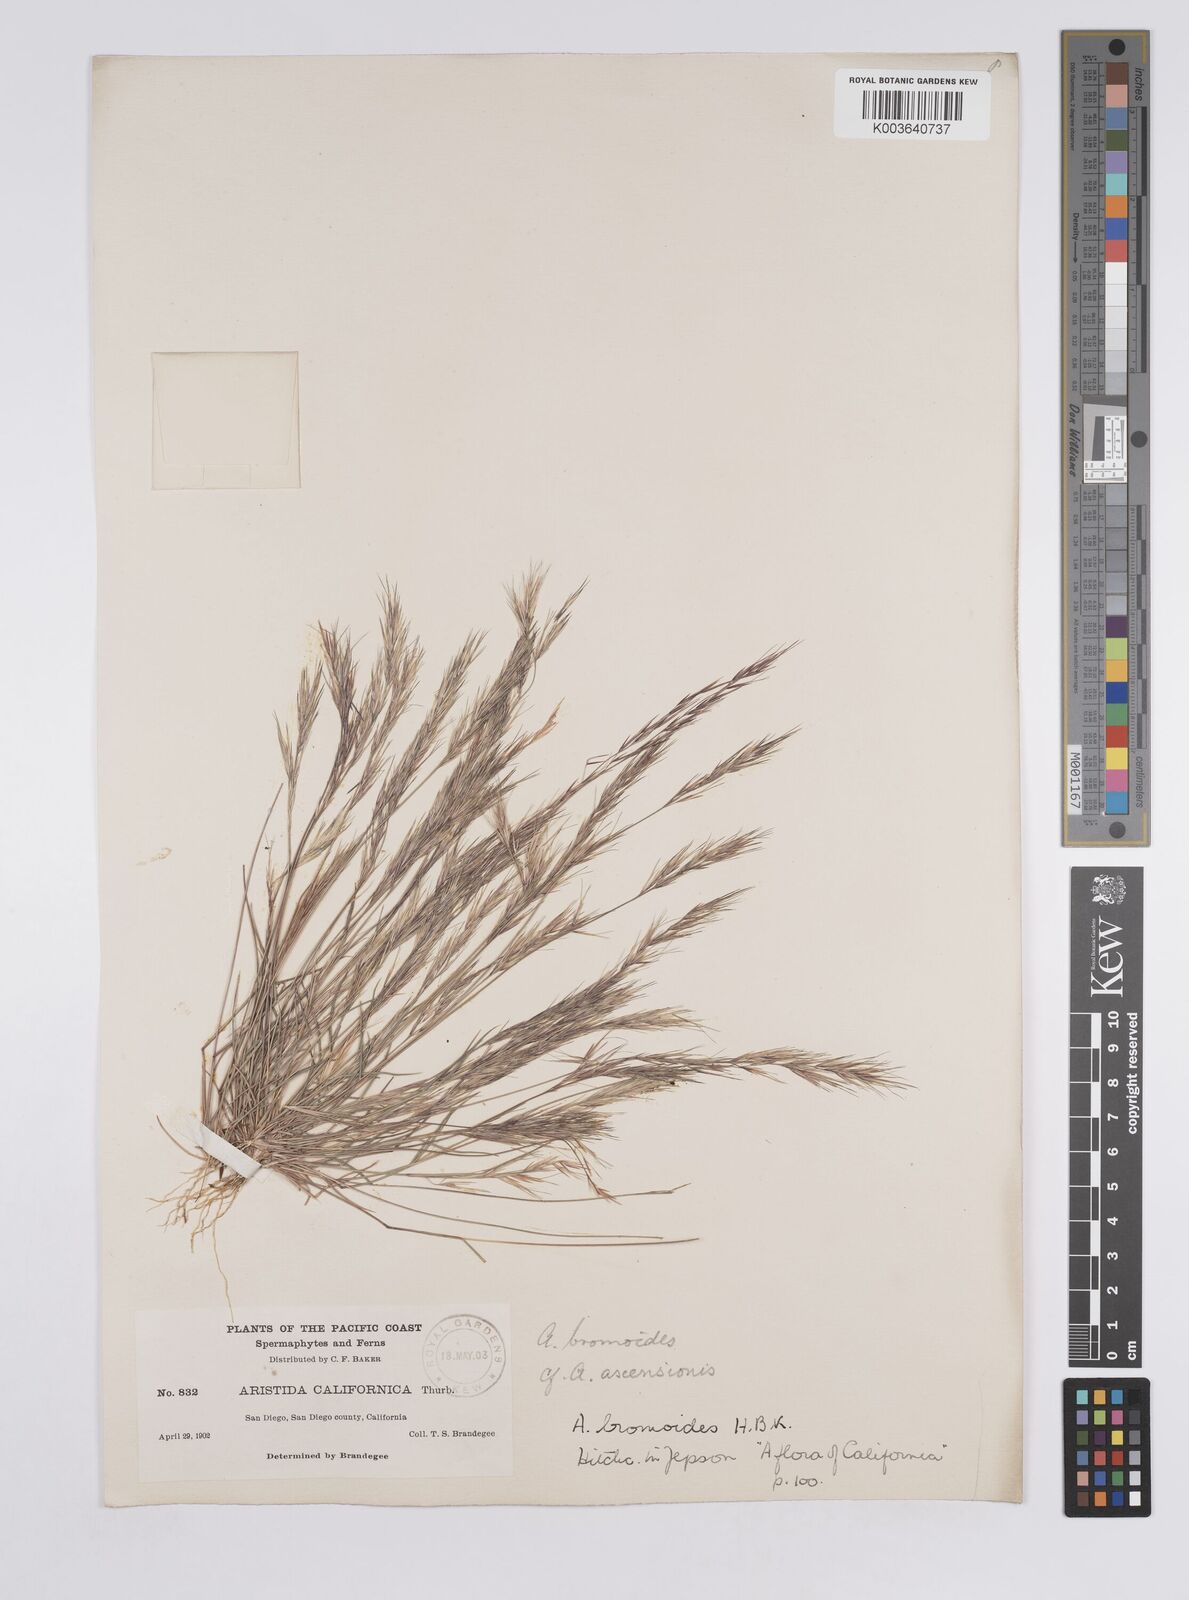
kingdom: Plantae
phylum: Tracheophyta
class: Liliopsida
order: Poales
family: Poaceae
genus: Aristida
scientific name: Aristida adscensionis
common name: Sixweeks threeawn
